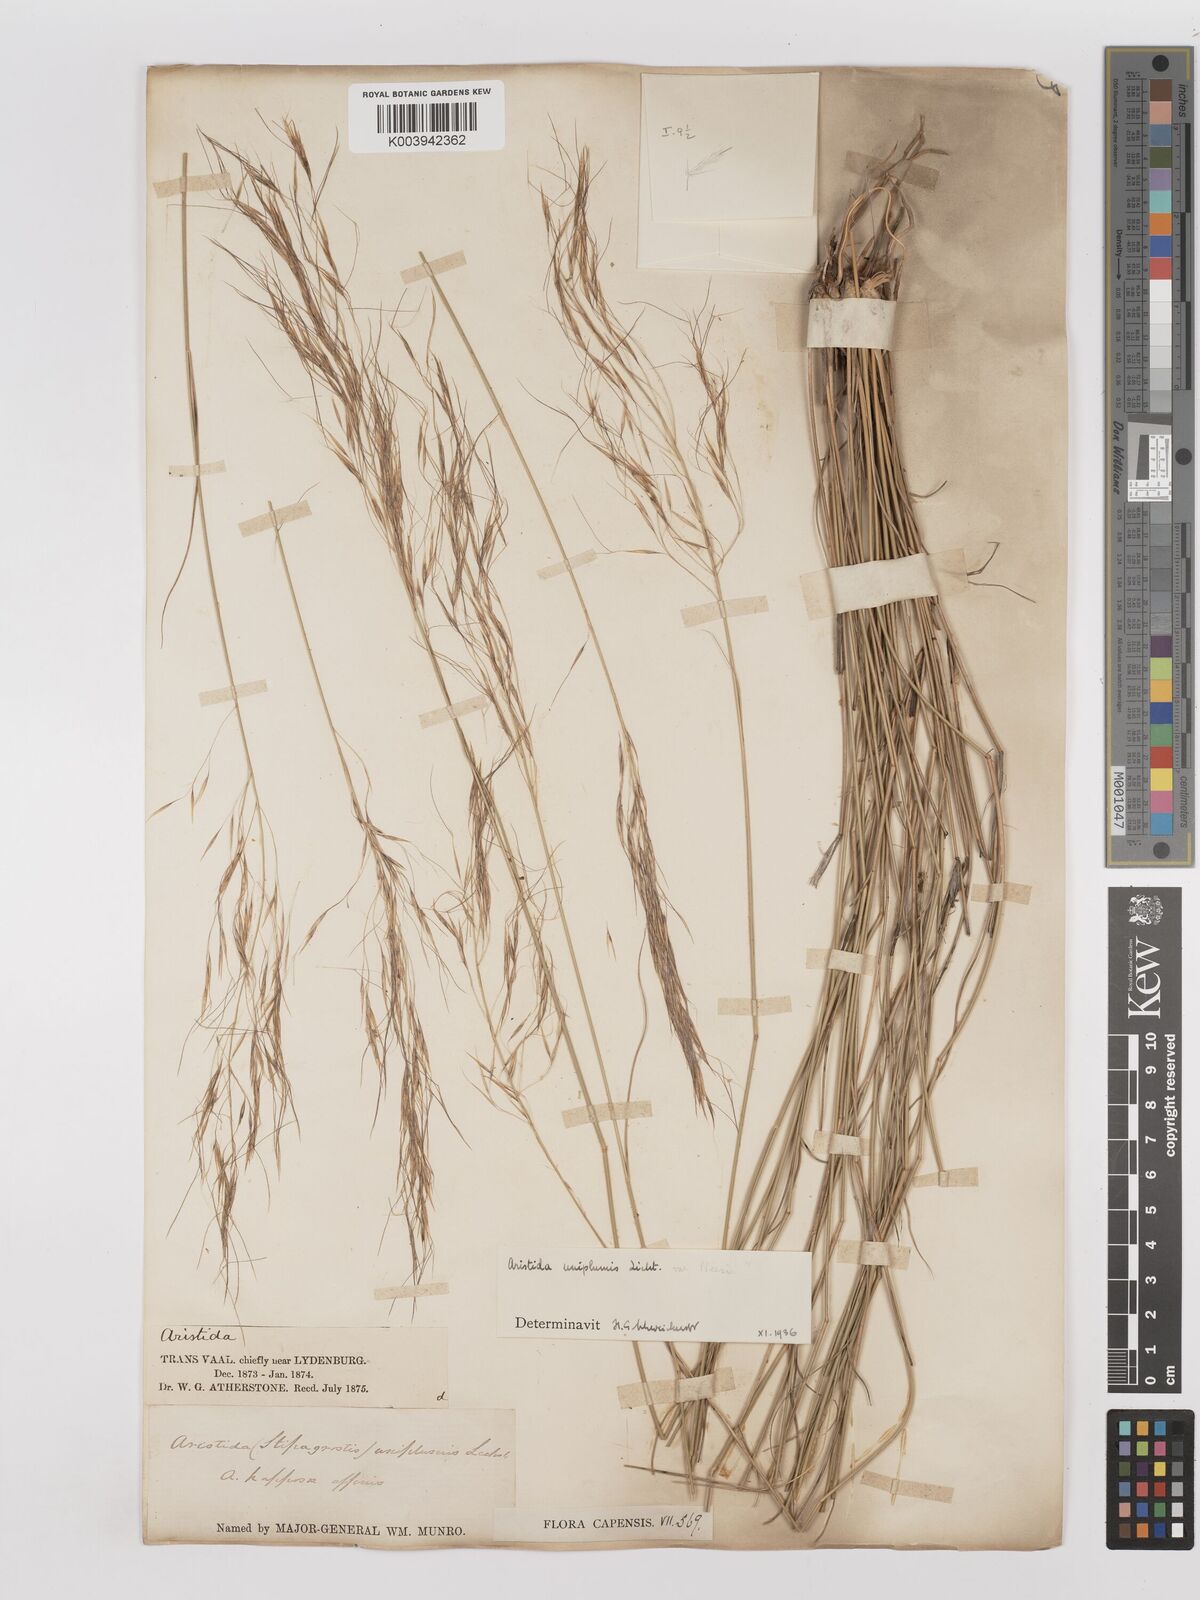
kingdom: Plantae
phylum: Tracheophyta
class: Liliopsida
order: Poales
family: Poaceae
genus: Stipagrostis
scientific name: Stipagrostis uniplumis
